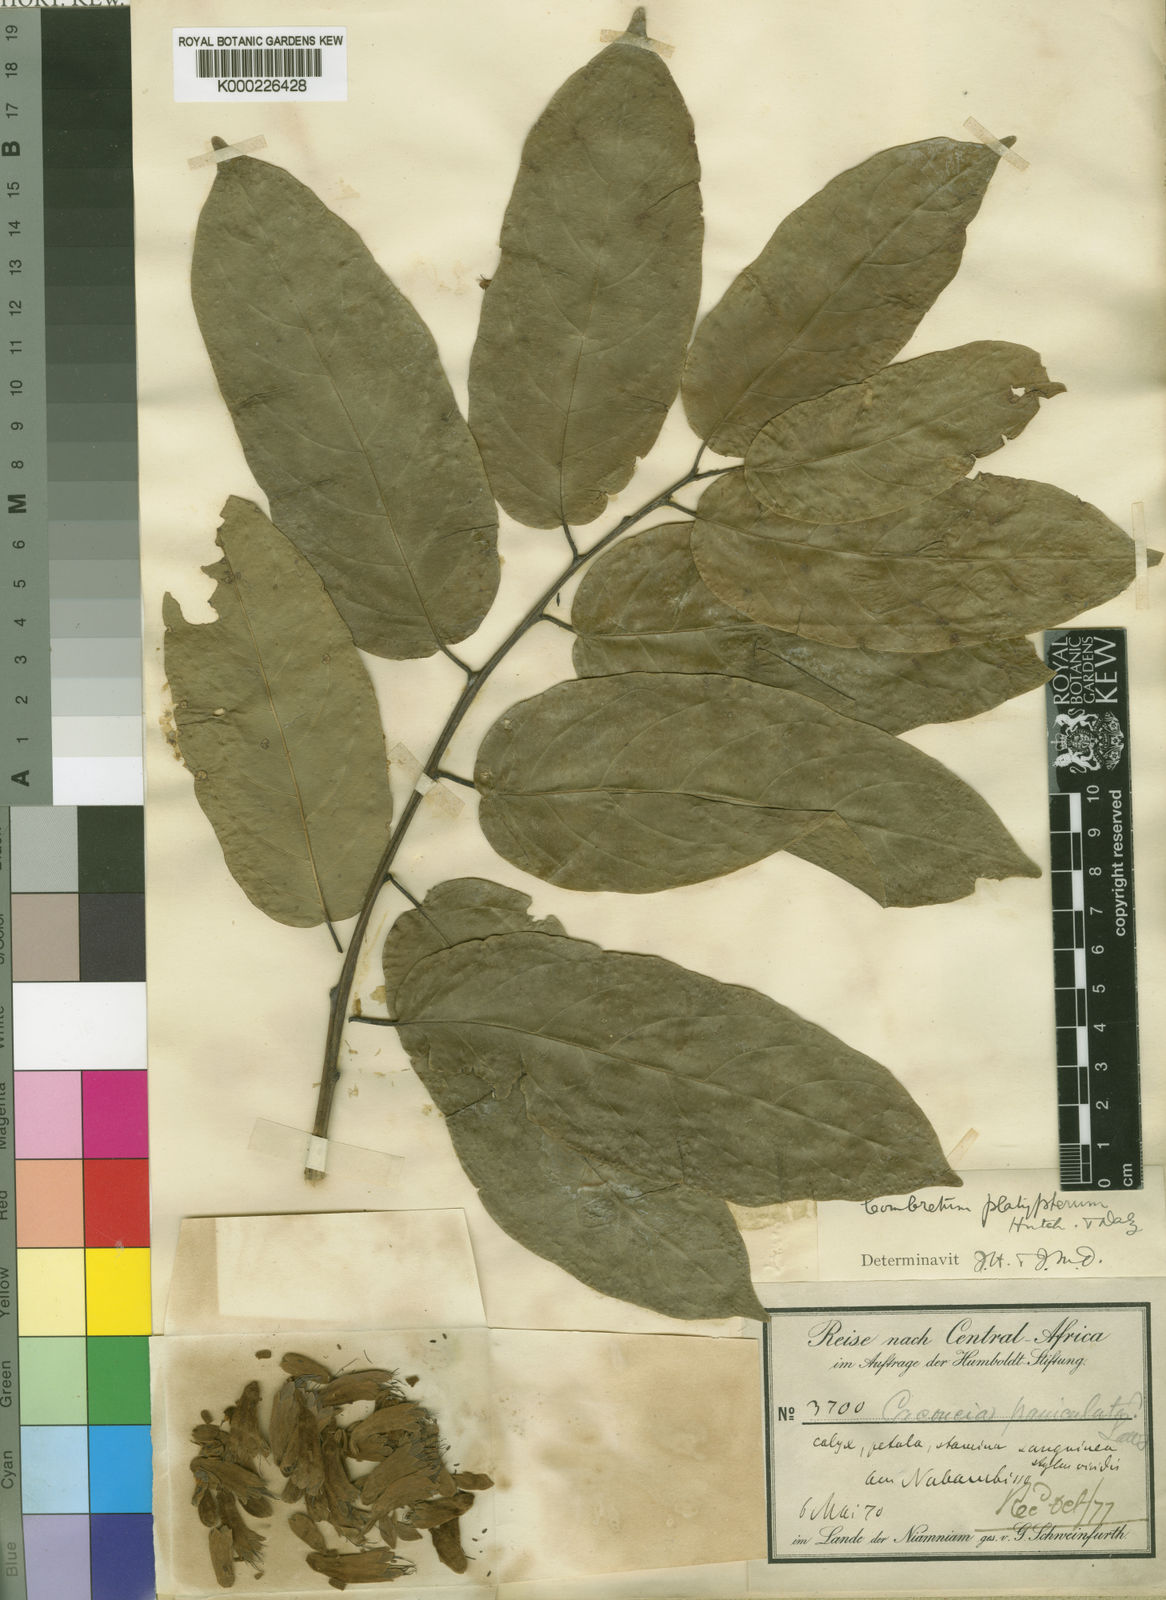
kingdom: Plantae
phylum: Tracheophyta
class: Magnoliopsida
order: Myrtales
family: Combretaceae
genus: Combretum
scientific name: Combretum platypterum
